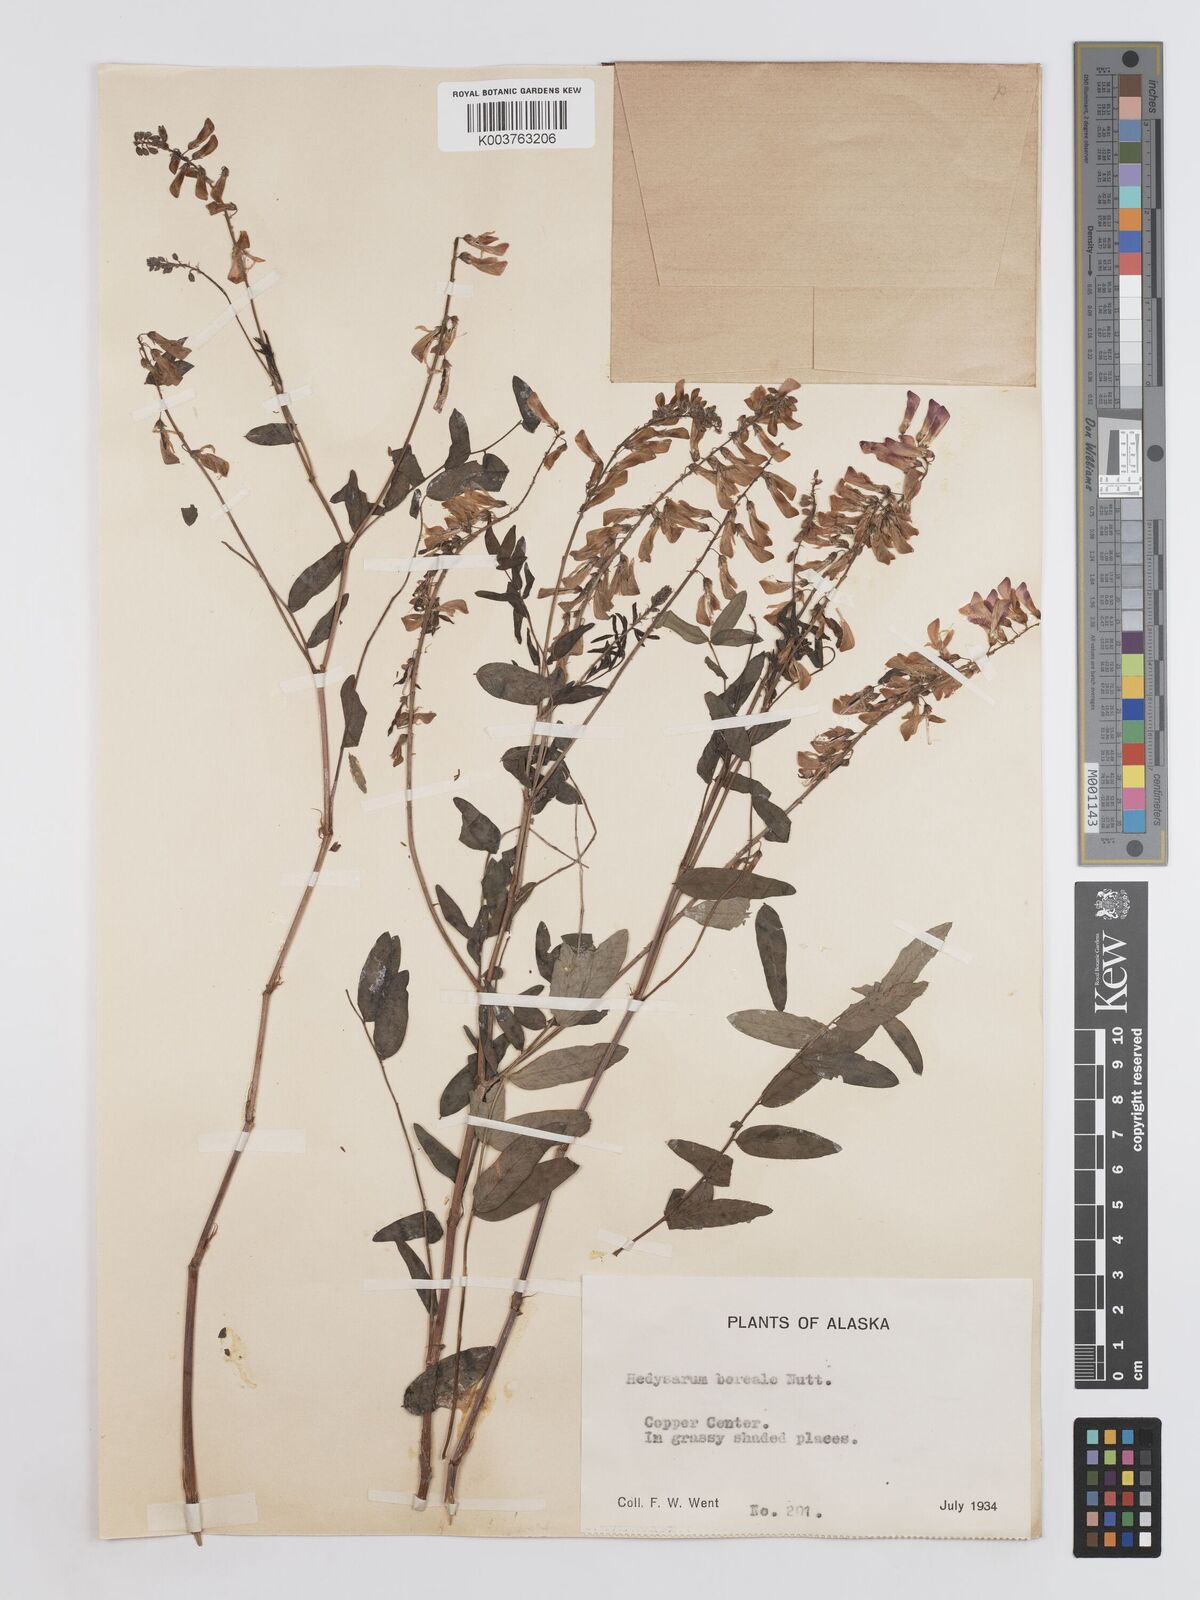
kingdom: Plantae
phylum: Tracheophyta
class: Magnoliopsida
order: Fabales
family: Fabaceae
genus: Hedysarum
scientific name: Hedysarum boreale
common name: Northern sweet-vetch
